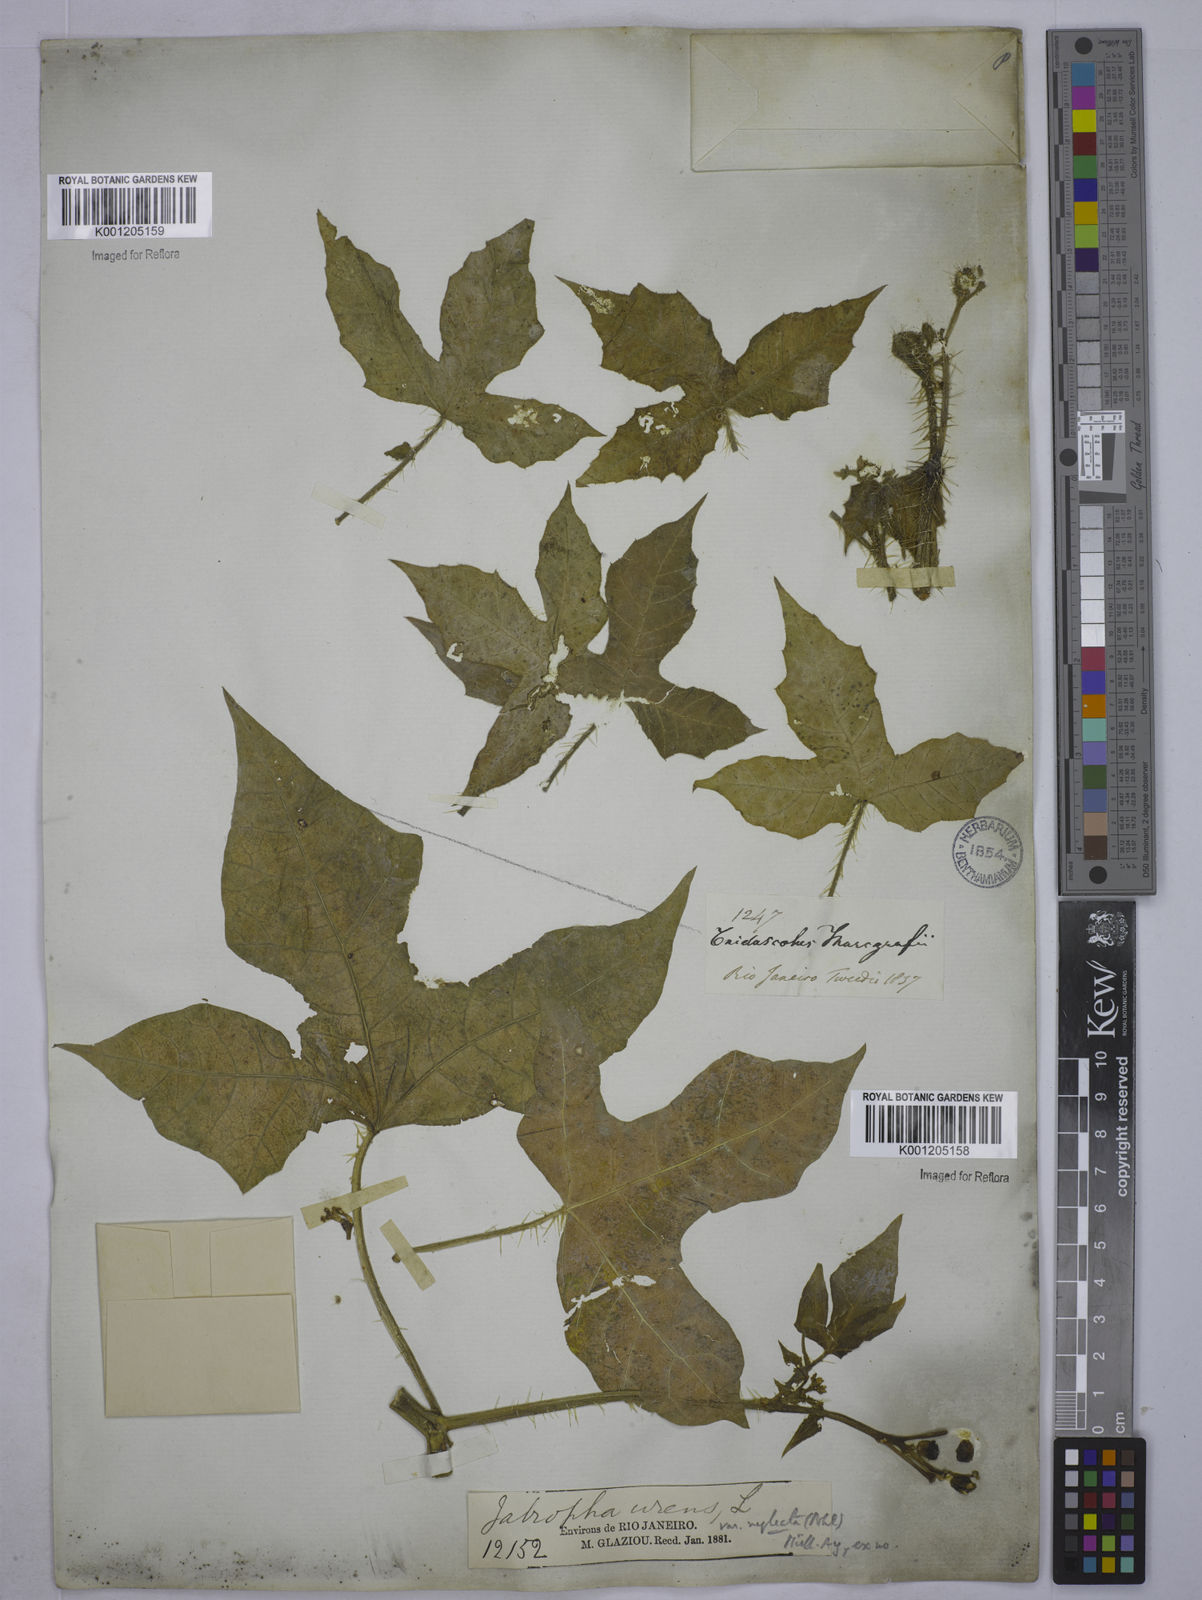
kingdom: Plantae
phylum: Tracheophyta
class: Magnoliopsida
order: Malpighiales
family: Euphorbiaceae
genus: Cnidoscolus
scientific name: Cnidoscolus neglectus
